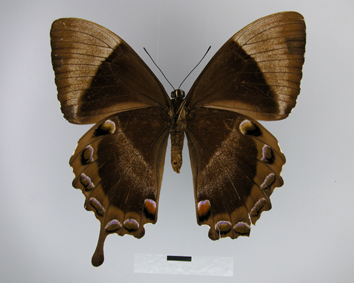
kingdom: Animalia
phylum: Arthropoda
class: Insecta
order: Lepidoptera
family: Papilionidae
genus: Papilio
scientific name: Papilio ulysses
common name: Blue emperor
